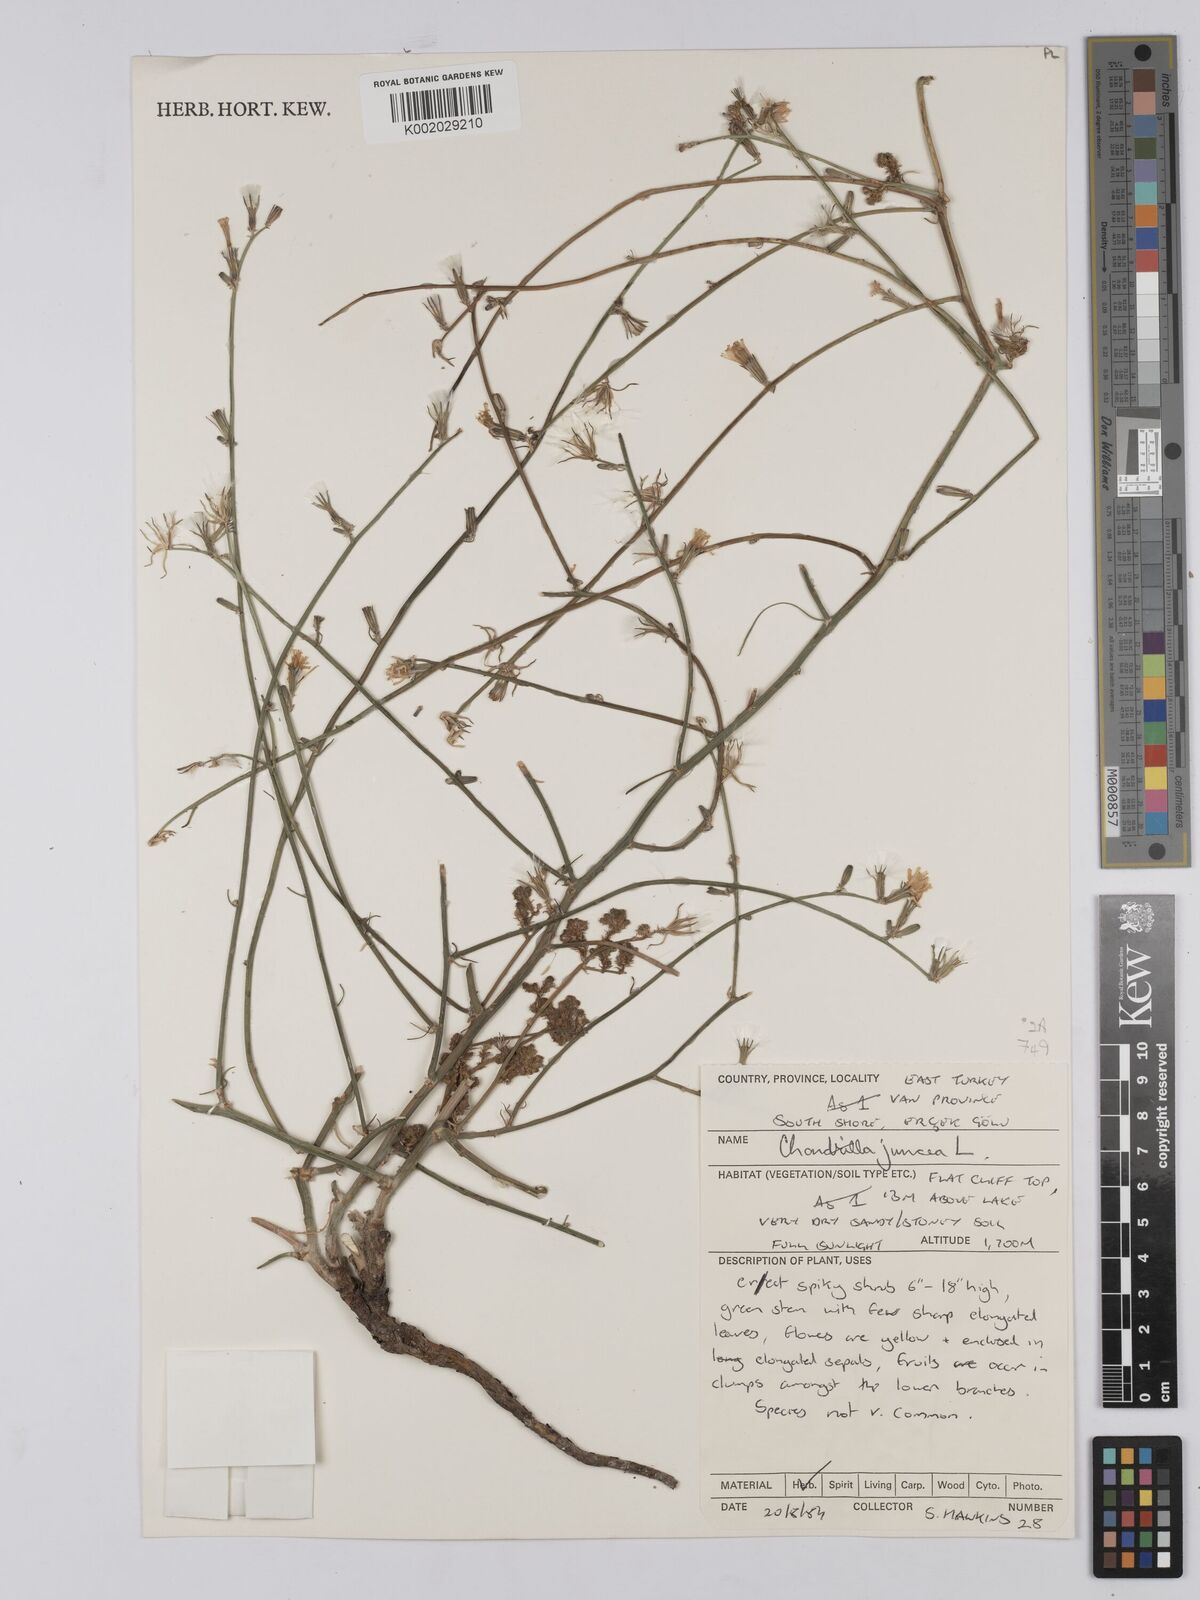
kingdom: Plantae
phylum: Tracheophyta
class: Magnoliopsida
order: Asterales
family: Asteraceae
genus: Chondrilla
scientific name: Chondrilla juncea
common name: Skeleton weed
